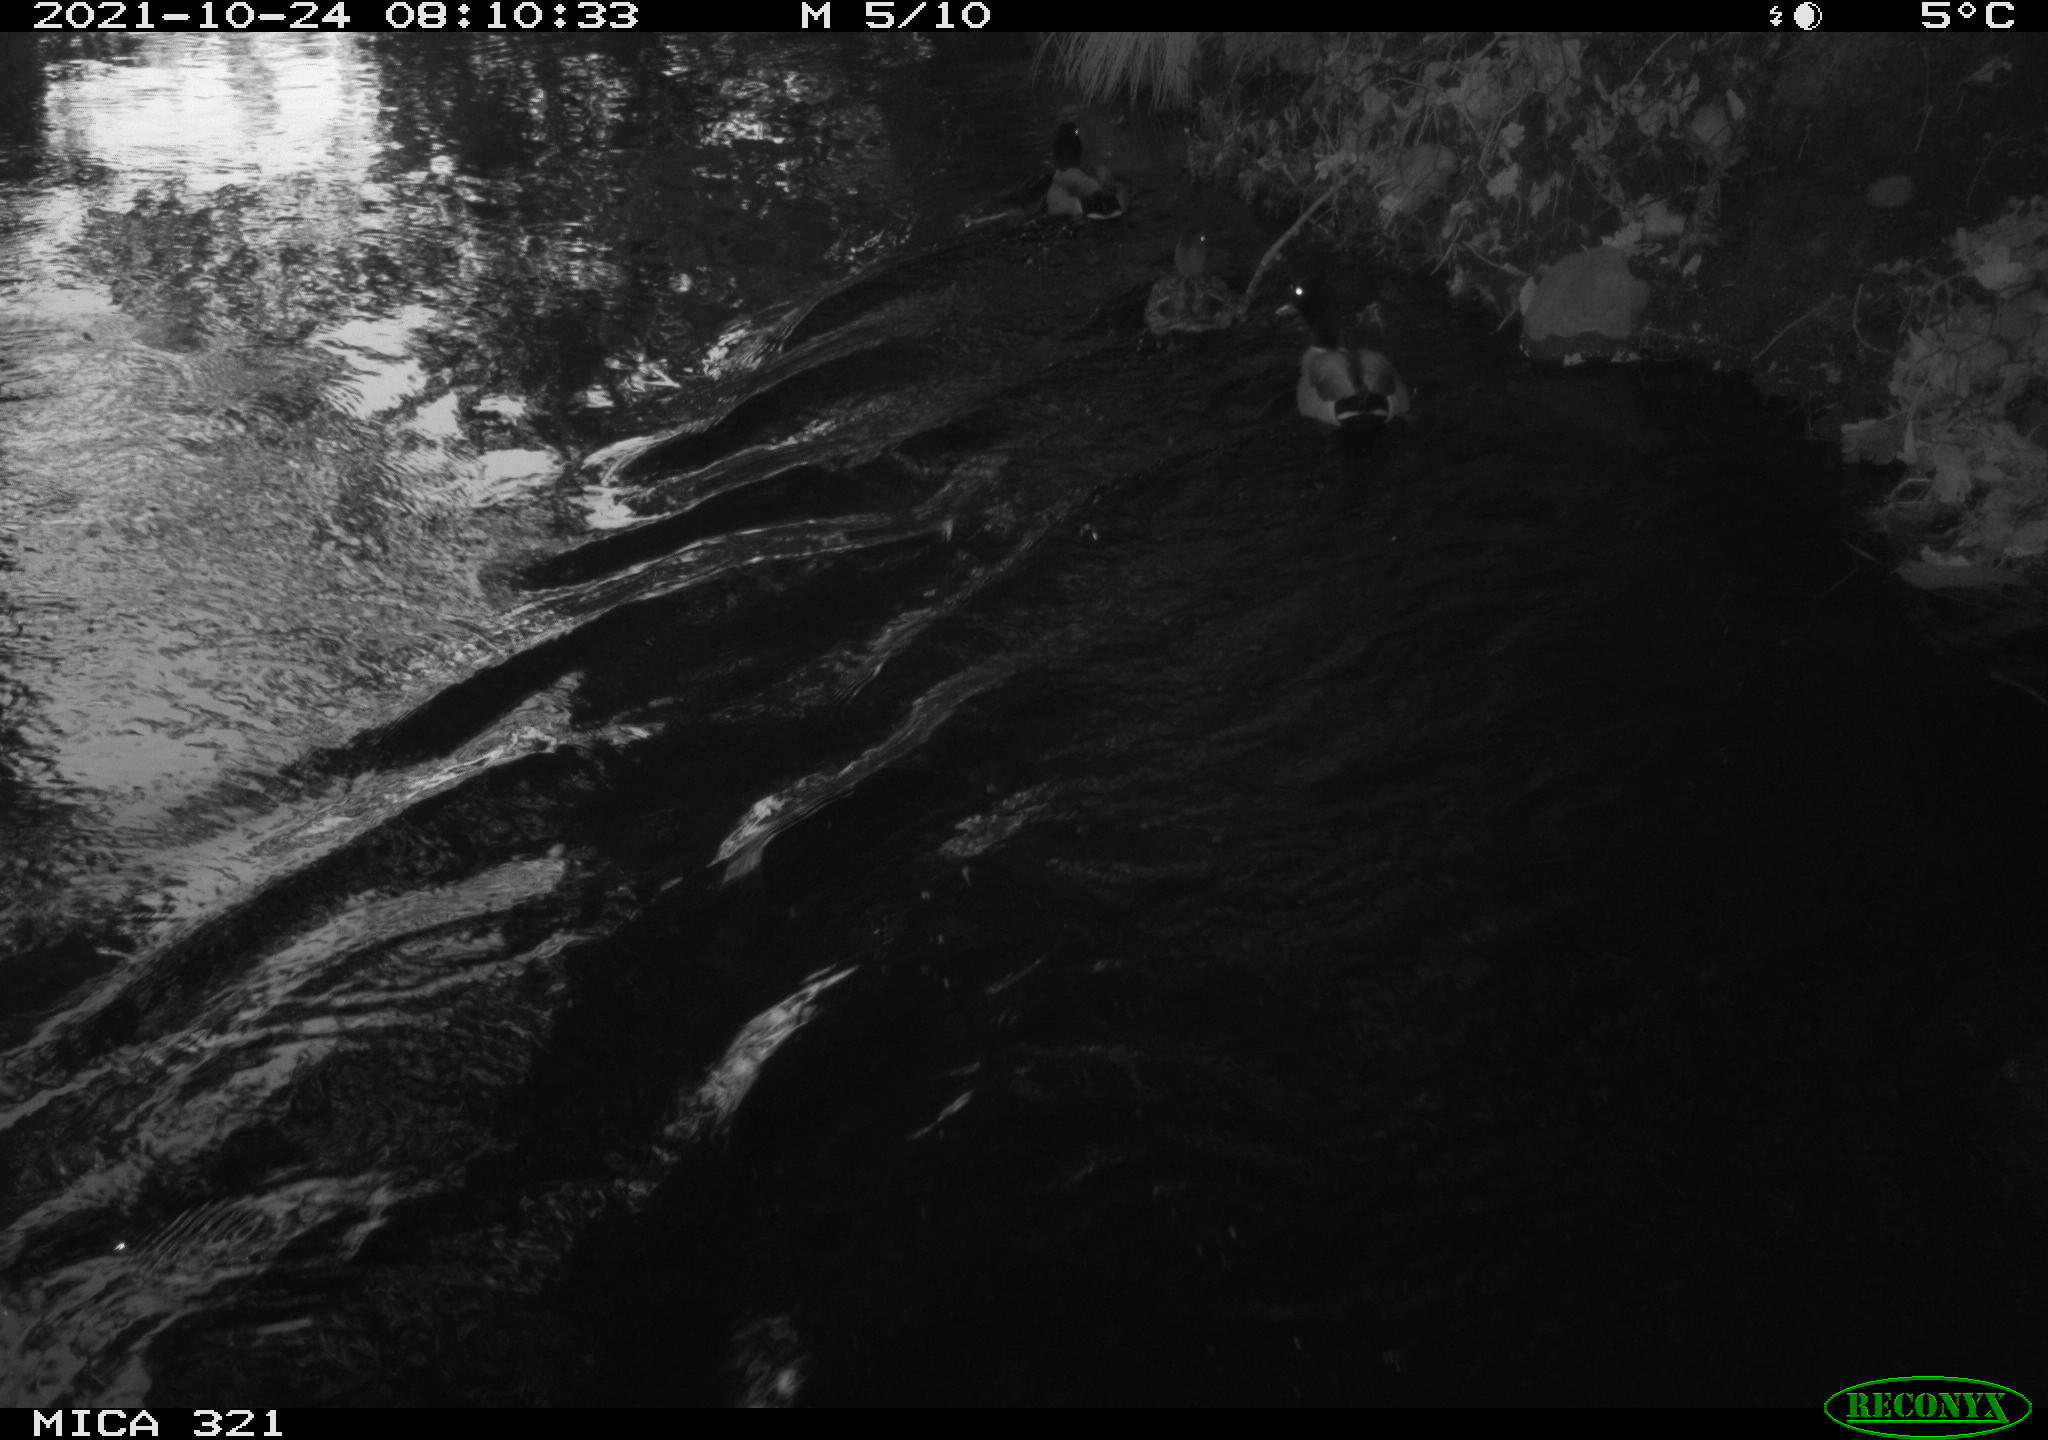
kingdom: Animalia
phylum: Chordata
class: Aves
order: Anseriformes
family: Anatidae
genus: Anas
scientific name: Anas platyrhynchos
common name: Mallard
